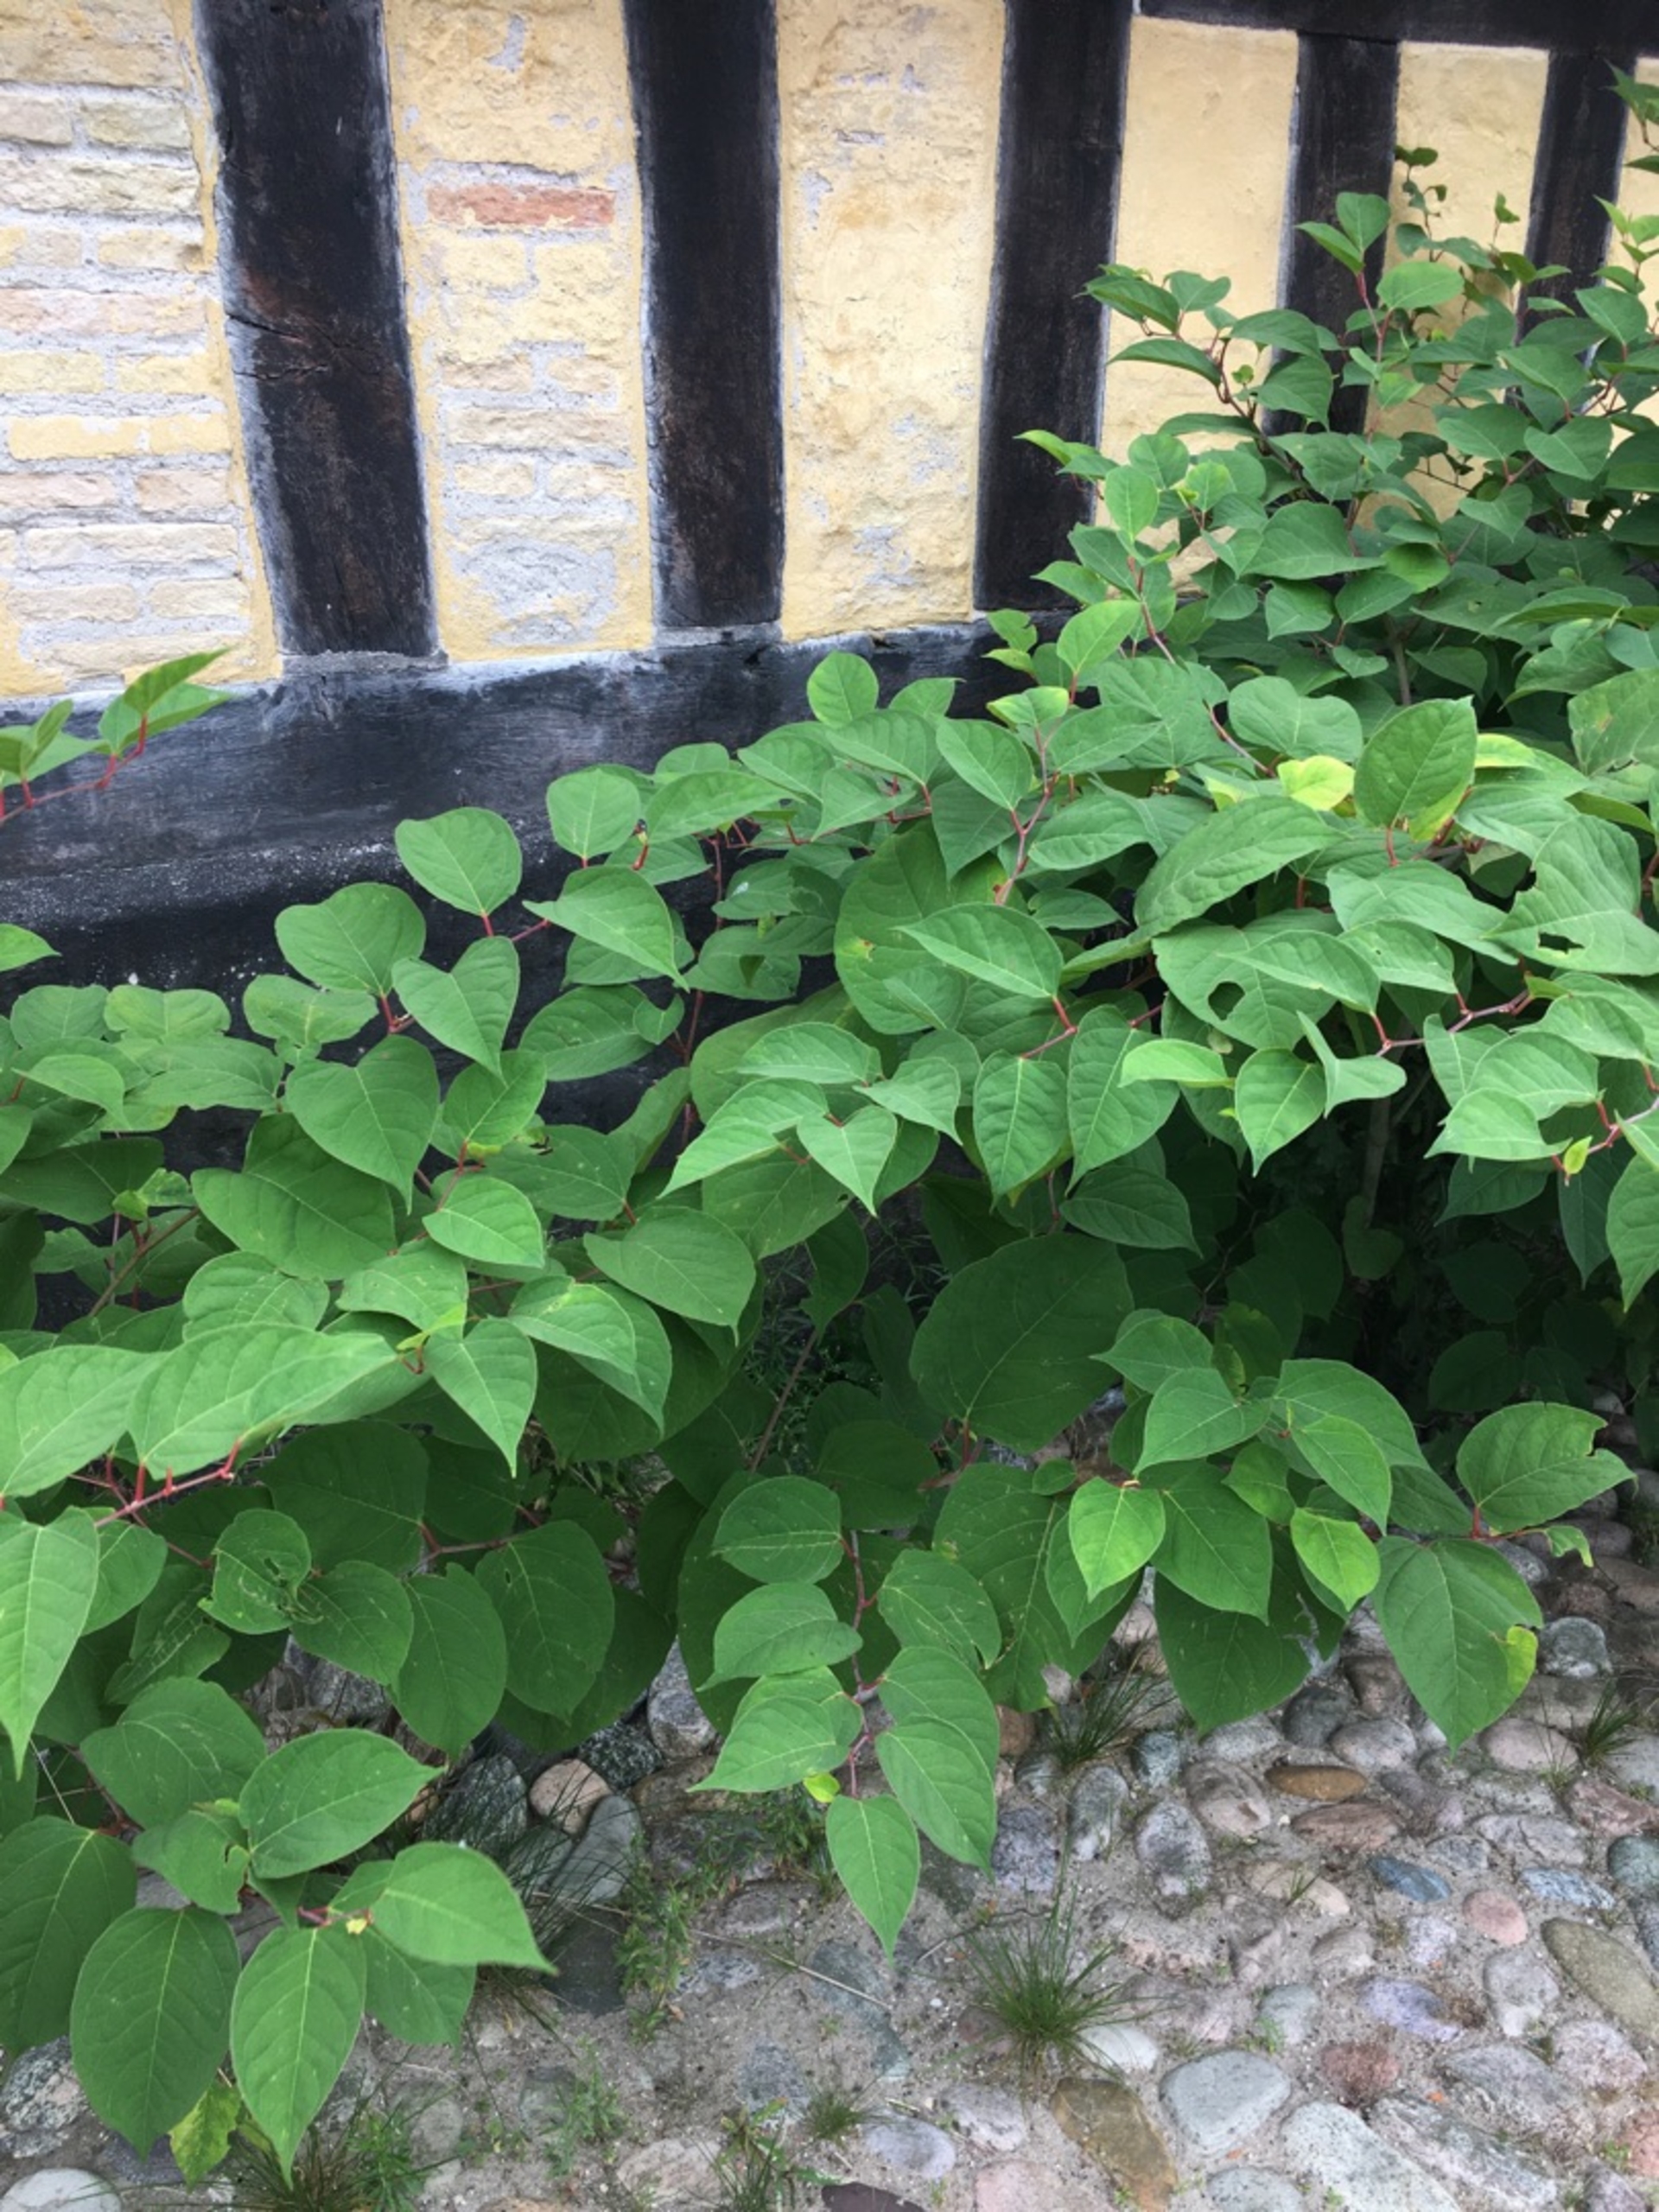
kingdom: Plantae
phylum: Tracheophyta
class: Magnoliopsida
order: Caryophyllales
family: Polygonaceae
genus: Reynoutria
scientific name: Reynoutria japonica
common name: Japan-pileurt
